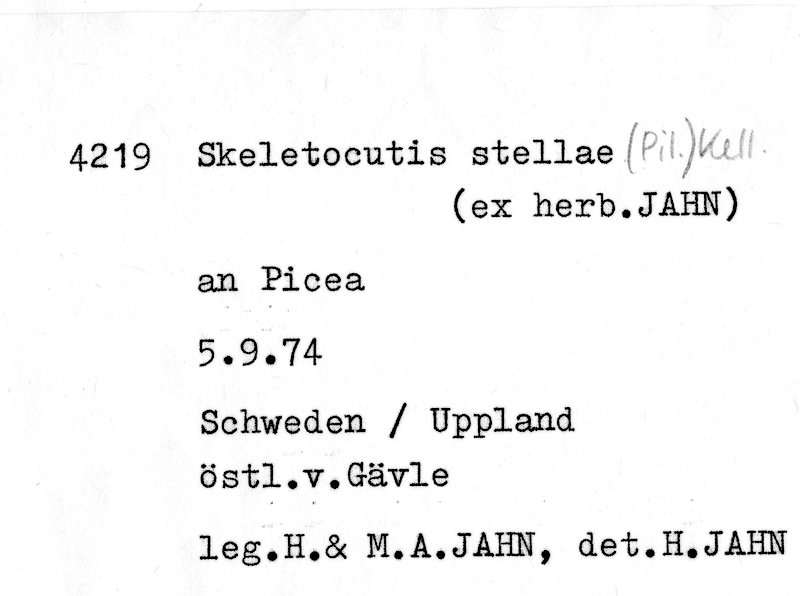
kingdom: Fungi
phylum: Basidiomycota
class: Agaricomycetes
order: Polyporales
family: Incrustoporiaceae
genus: Skeletocutis
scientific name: Skeletocutis stellae
